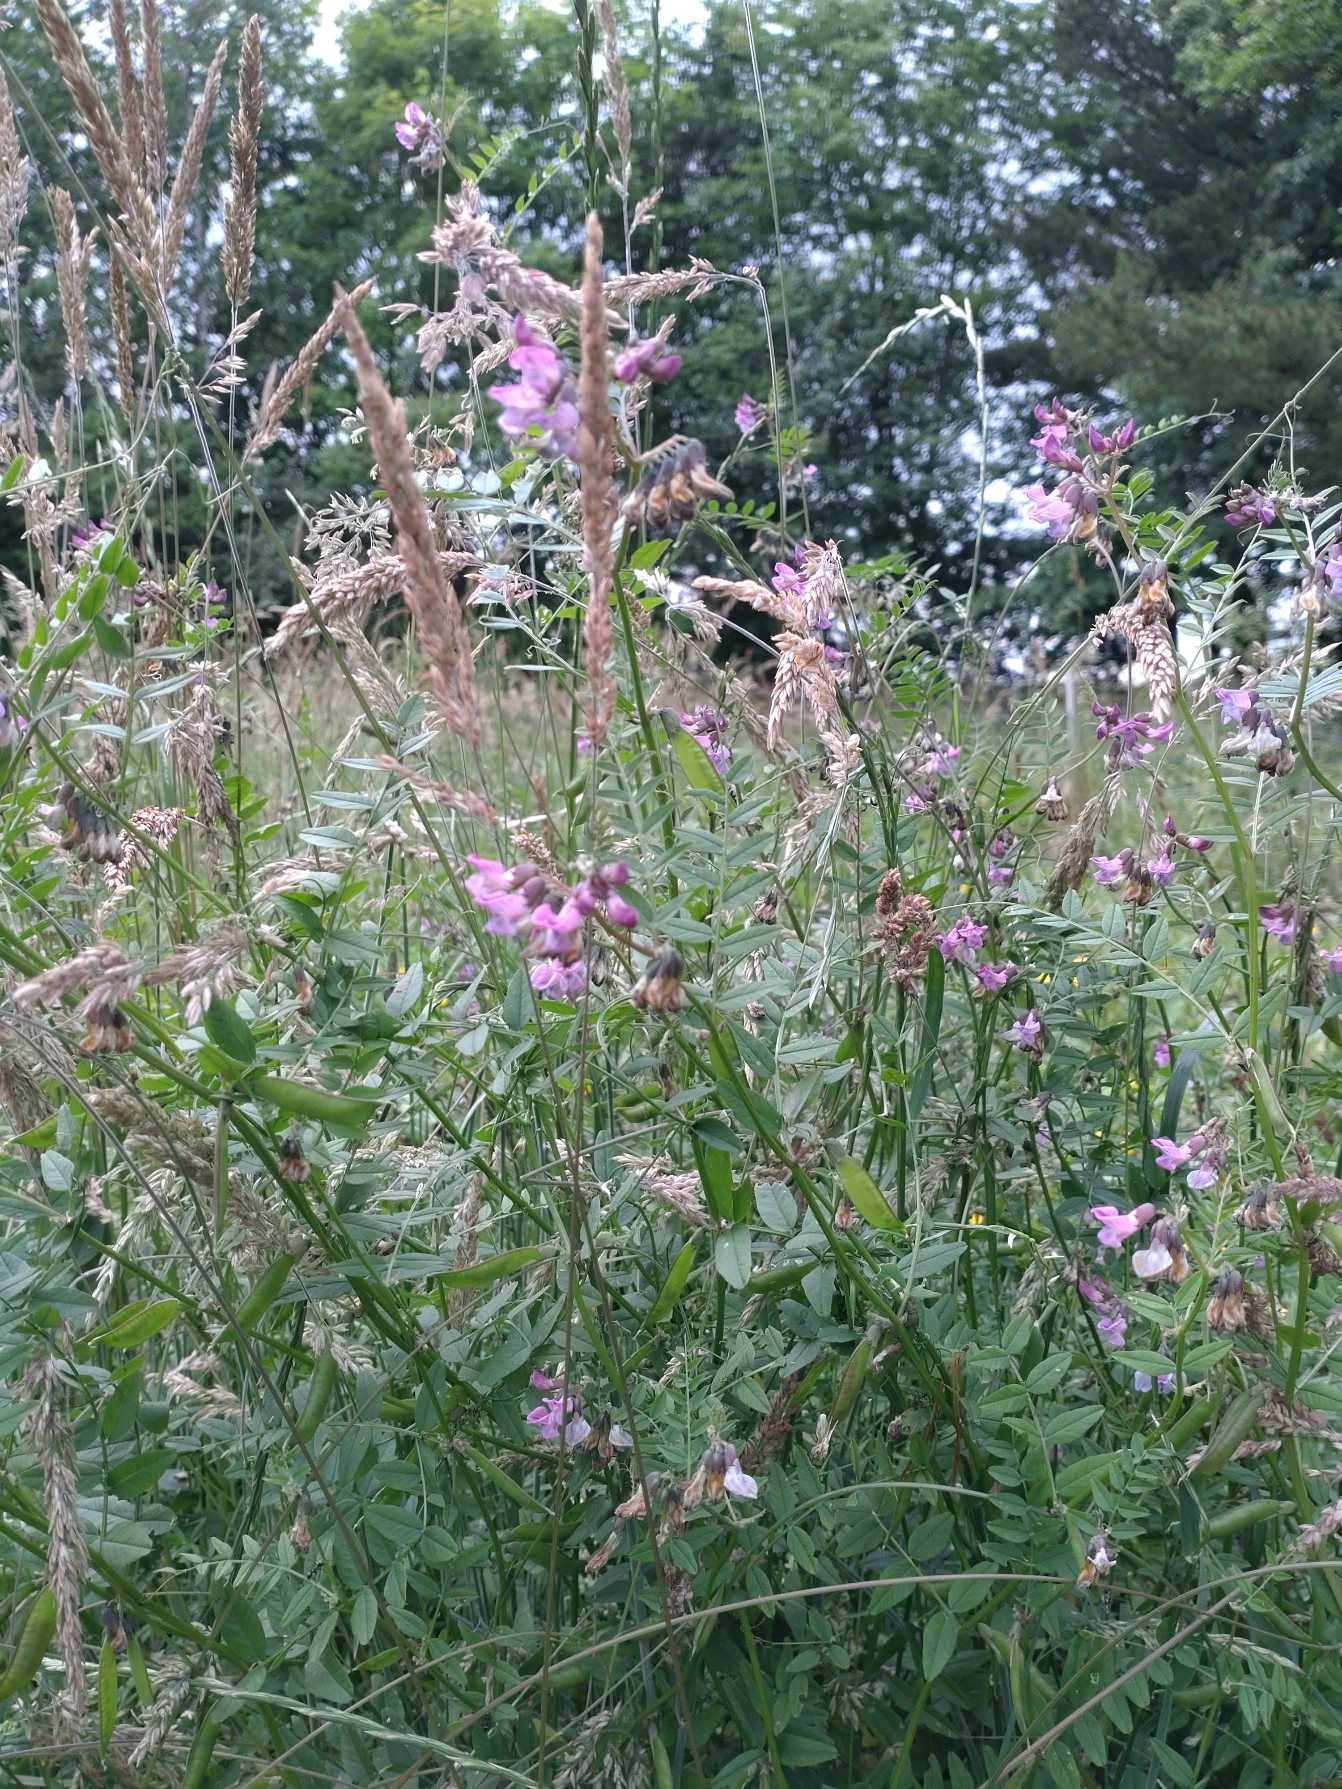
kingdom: Plantae
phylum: Tracheophyta
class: Magnoliopsida
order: Fabales
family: Fabaceae
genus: Vicia
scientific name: Vicia sepium
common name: Gærde-vikke
